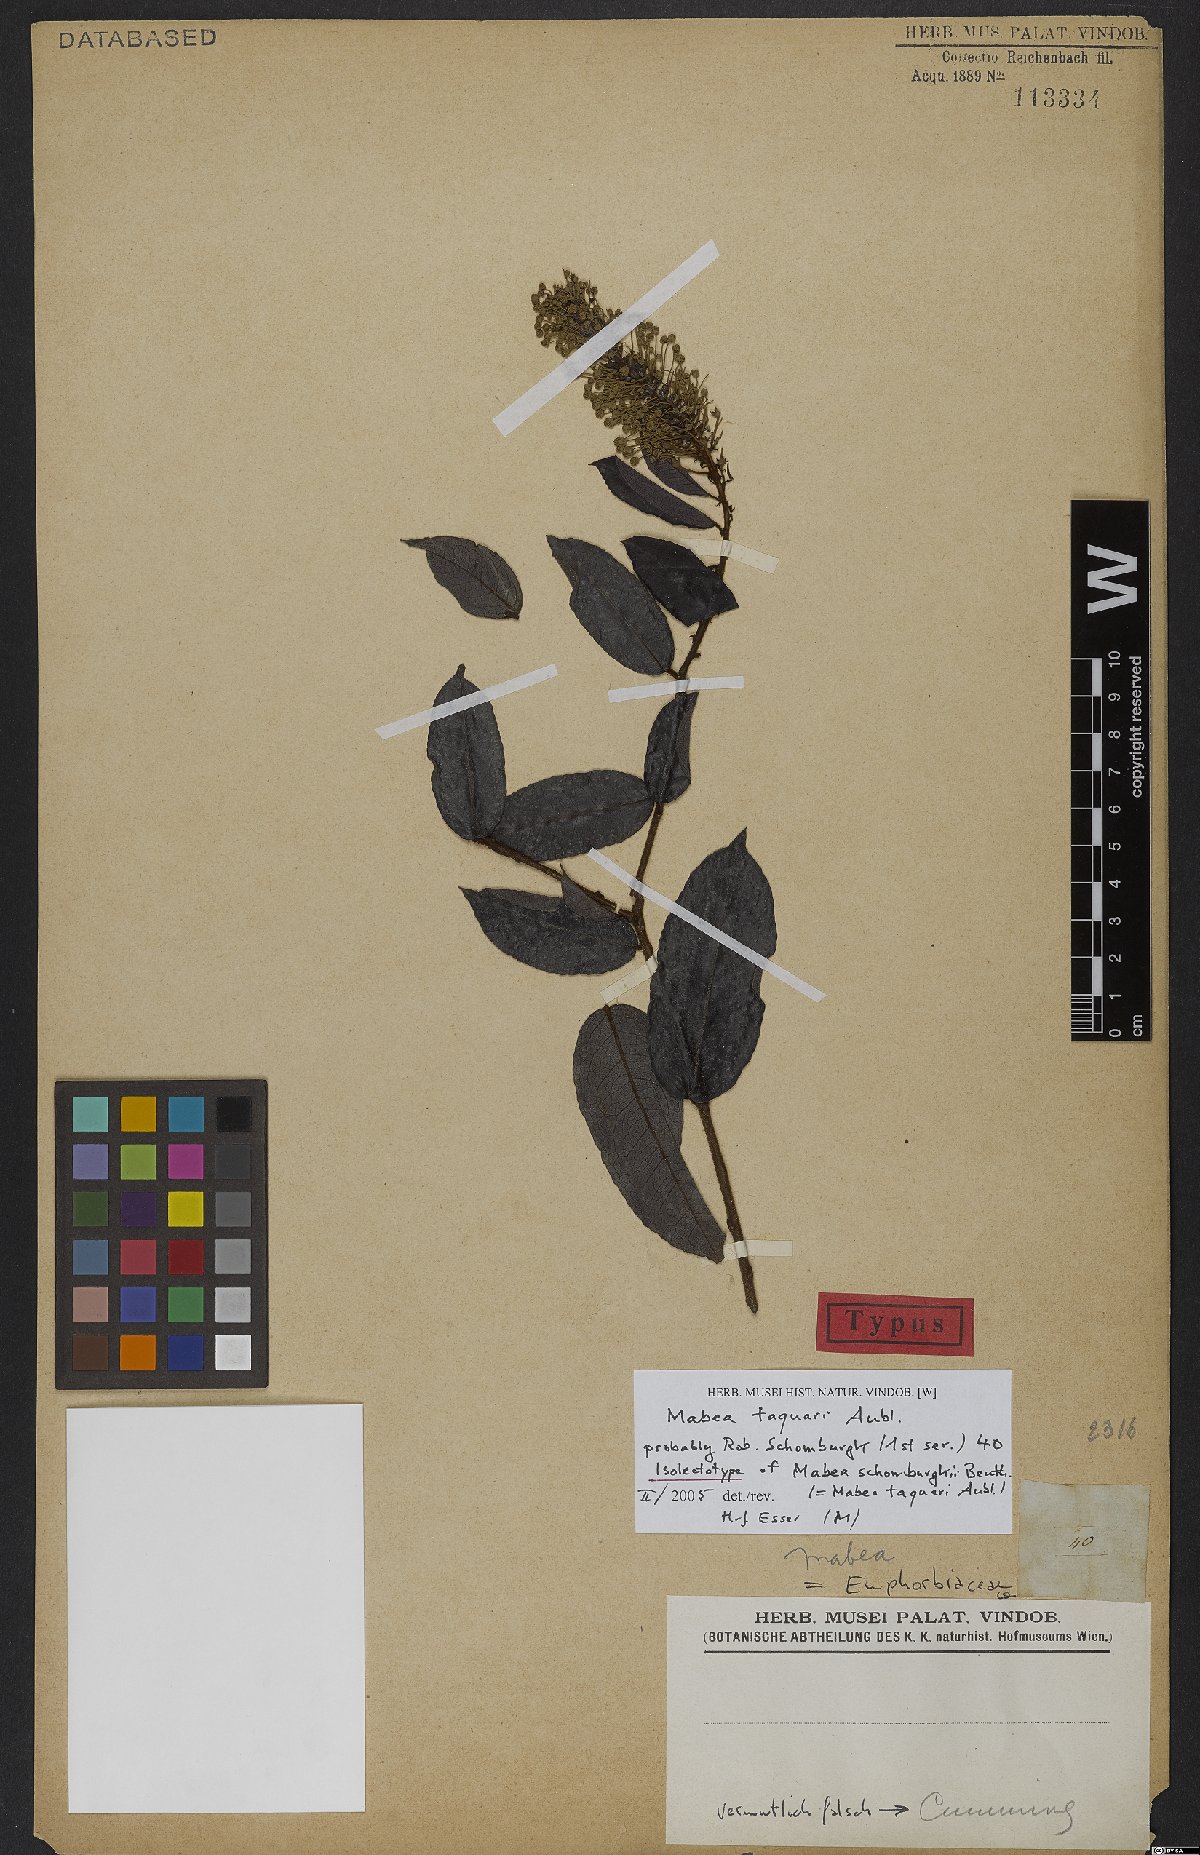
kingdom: Plantae
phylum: Tracheophyta
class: Magnoliopsida
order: Malpighiales
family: Euphorbiaceae
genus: Mabea
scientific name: Mabea taquari
